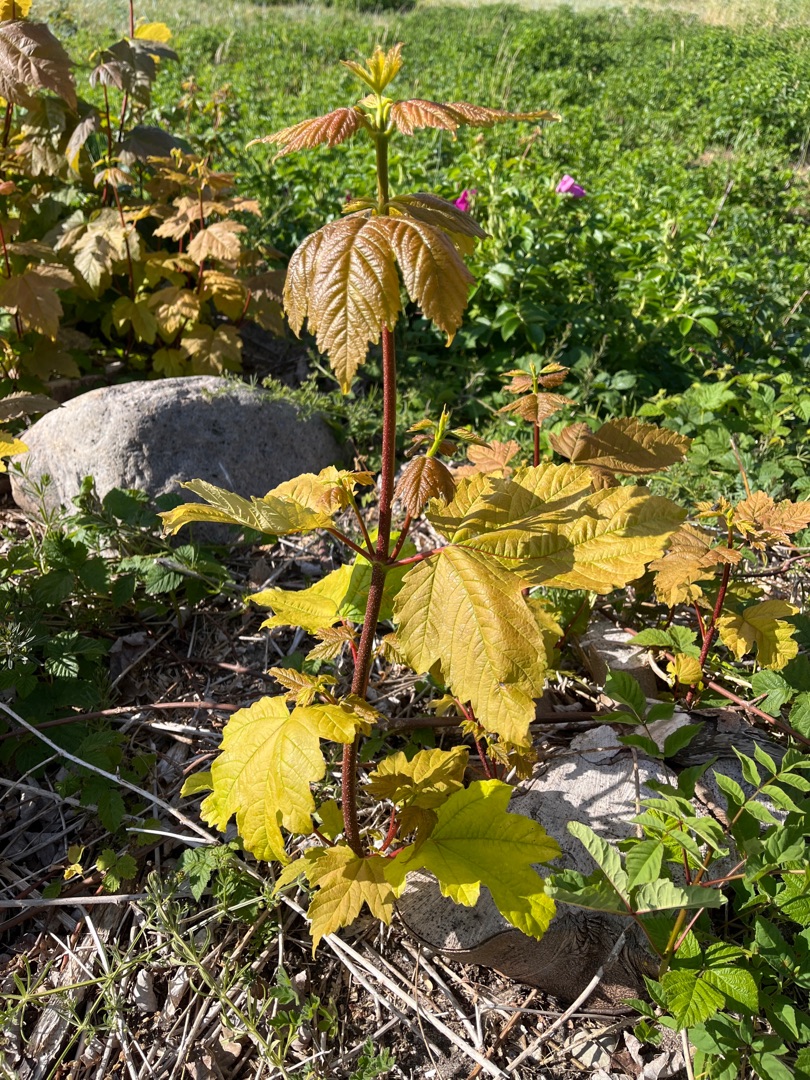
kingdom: Plantae
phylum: Tracheophyta
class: Magnoliopsida
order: Sapindales
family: Sapindaceae
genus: Acer
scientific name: Acer pseudoplatanus
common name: Ahorn
